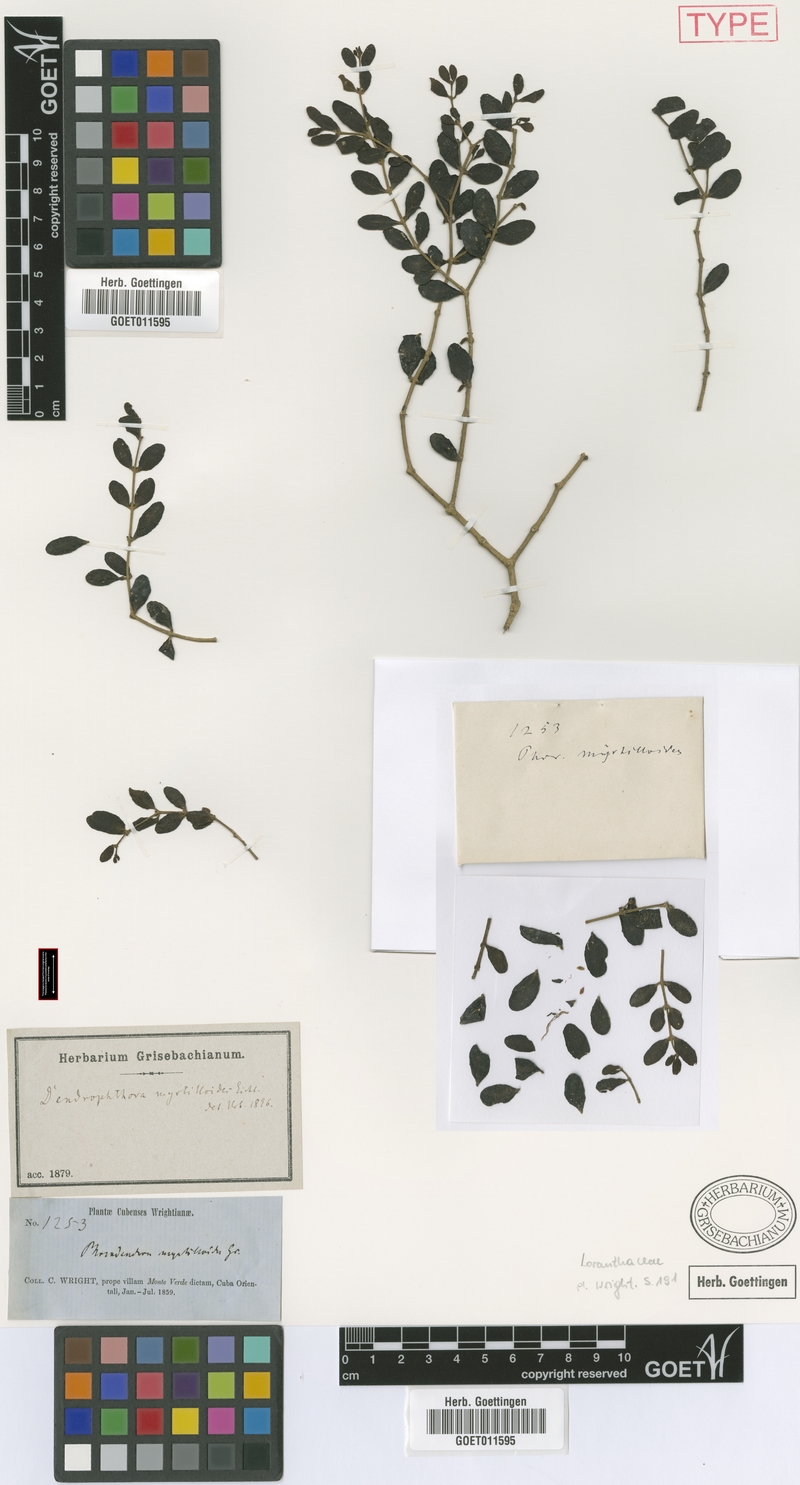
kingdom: Plantae
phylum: Tracheophyta
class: Magnoliopsida
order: Santalales
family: Viscaceae
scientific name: Viscaceae
